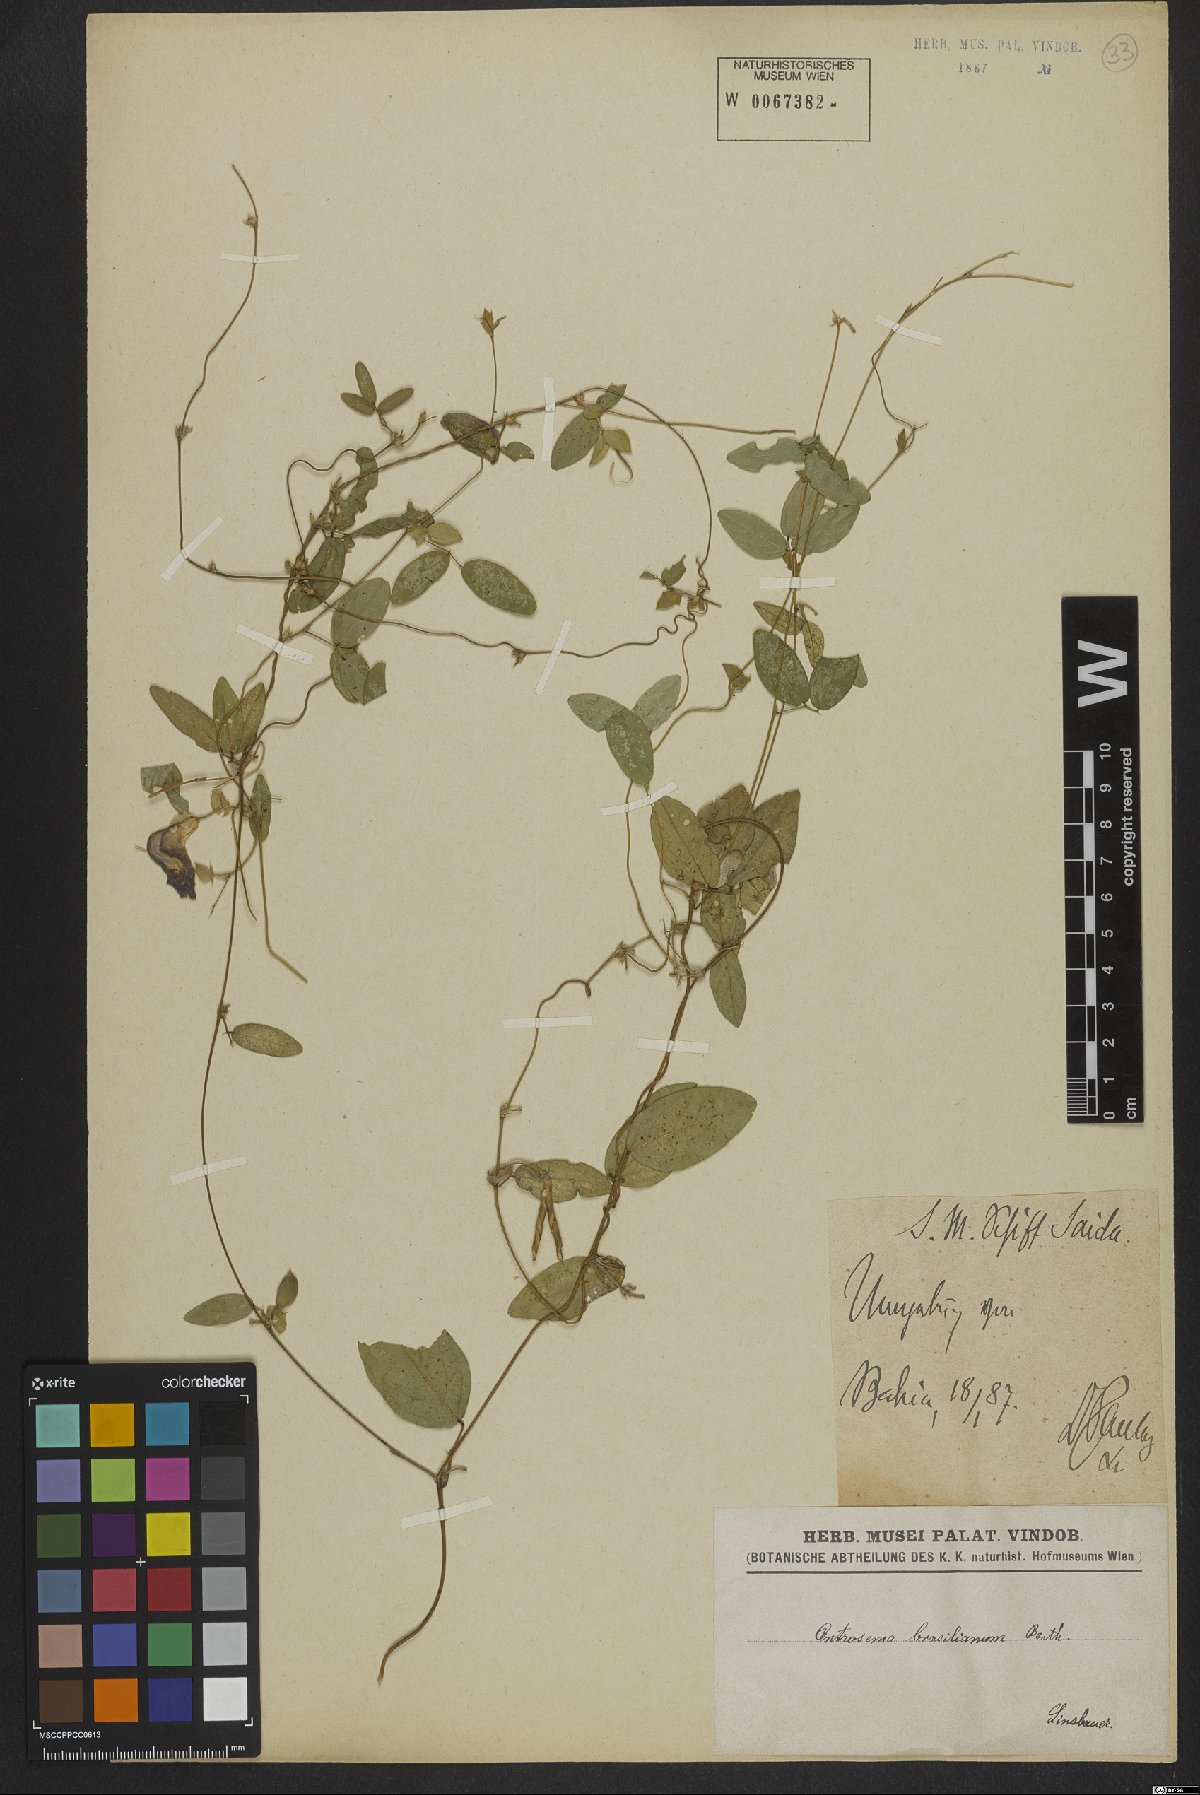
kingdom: Plantae
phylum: Tracheophyta
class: Magnoliopsida
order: Fabales
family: Fabaceae
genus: Centrosema
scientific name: Centrosema brasilianum
